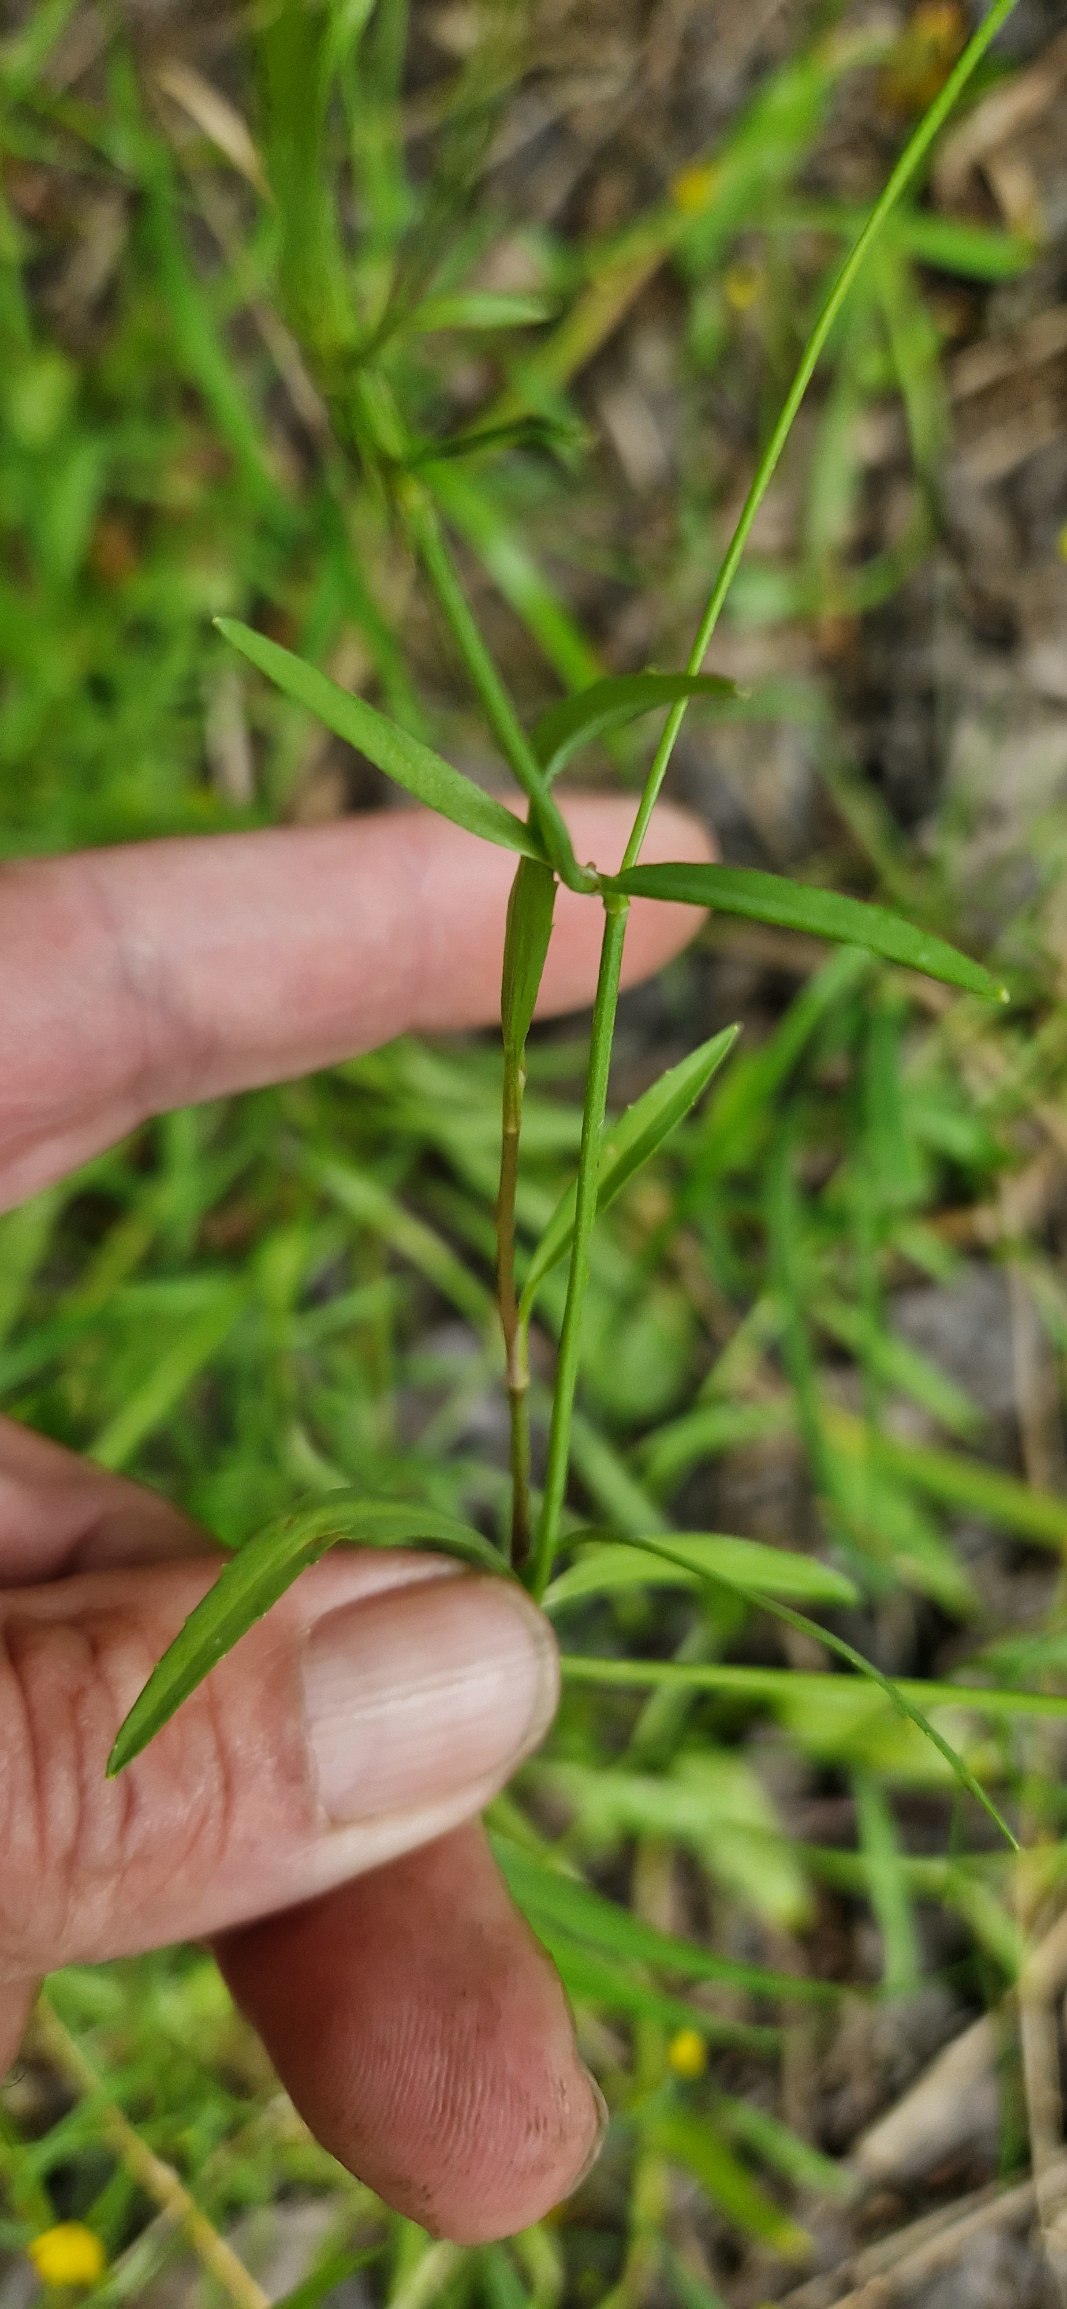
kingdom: Plantae
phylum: Tracheophyta
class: Magnoliopsida
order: Ranunculales
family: Ranunculaceae
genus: Ranunculus
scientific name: Ranunculus flammula
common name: Kær-ranunkel
